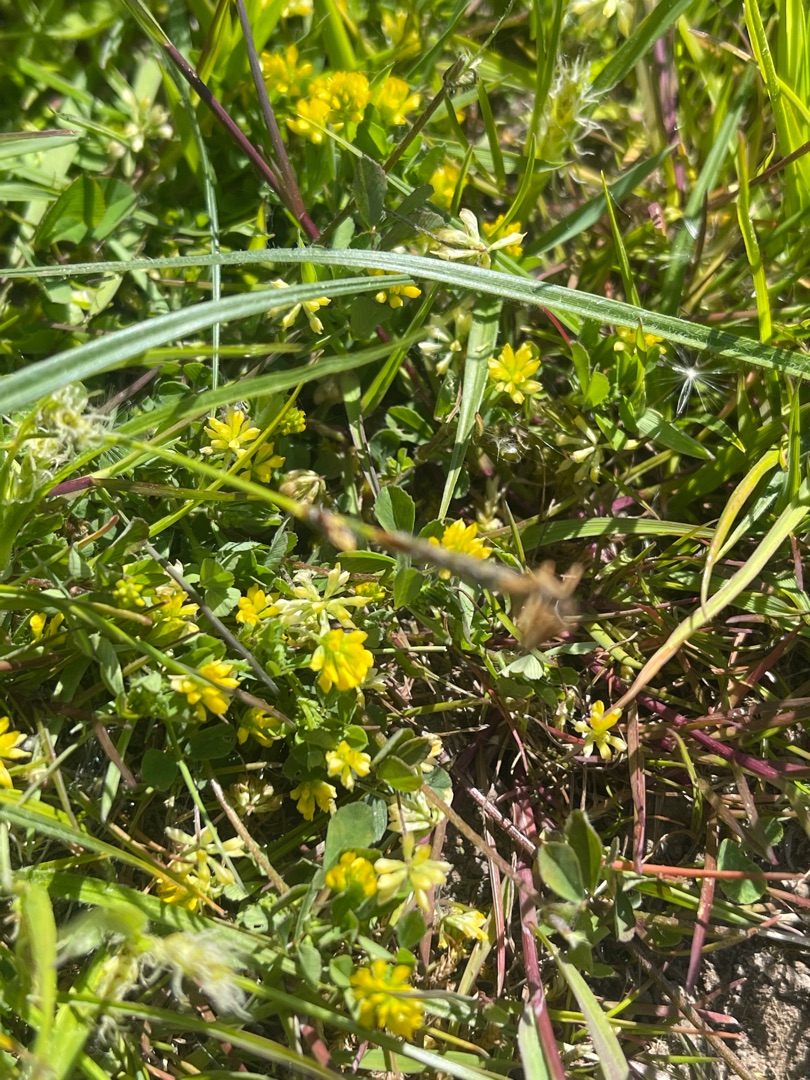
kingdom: Plantae
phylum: Tracheophyta
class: Magnoliopsida
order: Fabales
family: Fabaceae
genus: Trifolium
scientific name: Trifolium dubium
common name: Fin kløver
